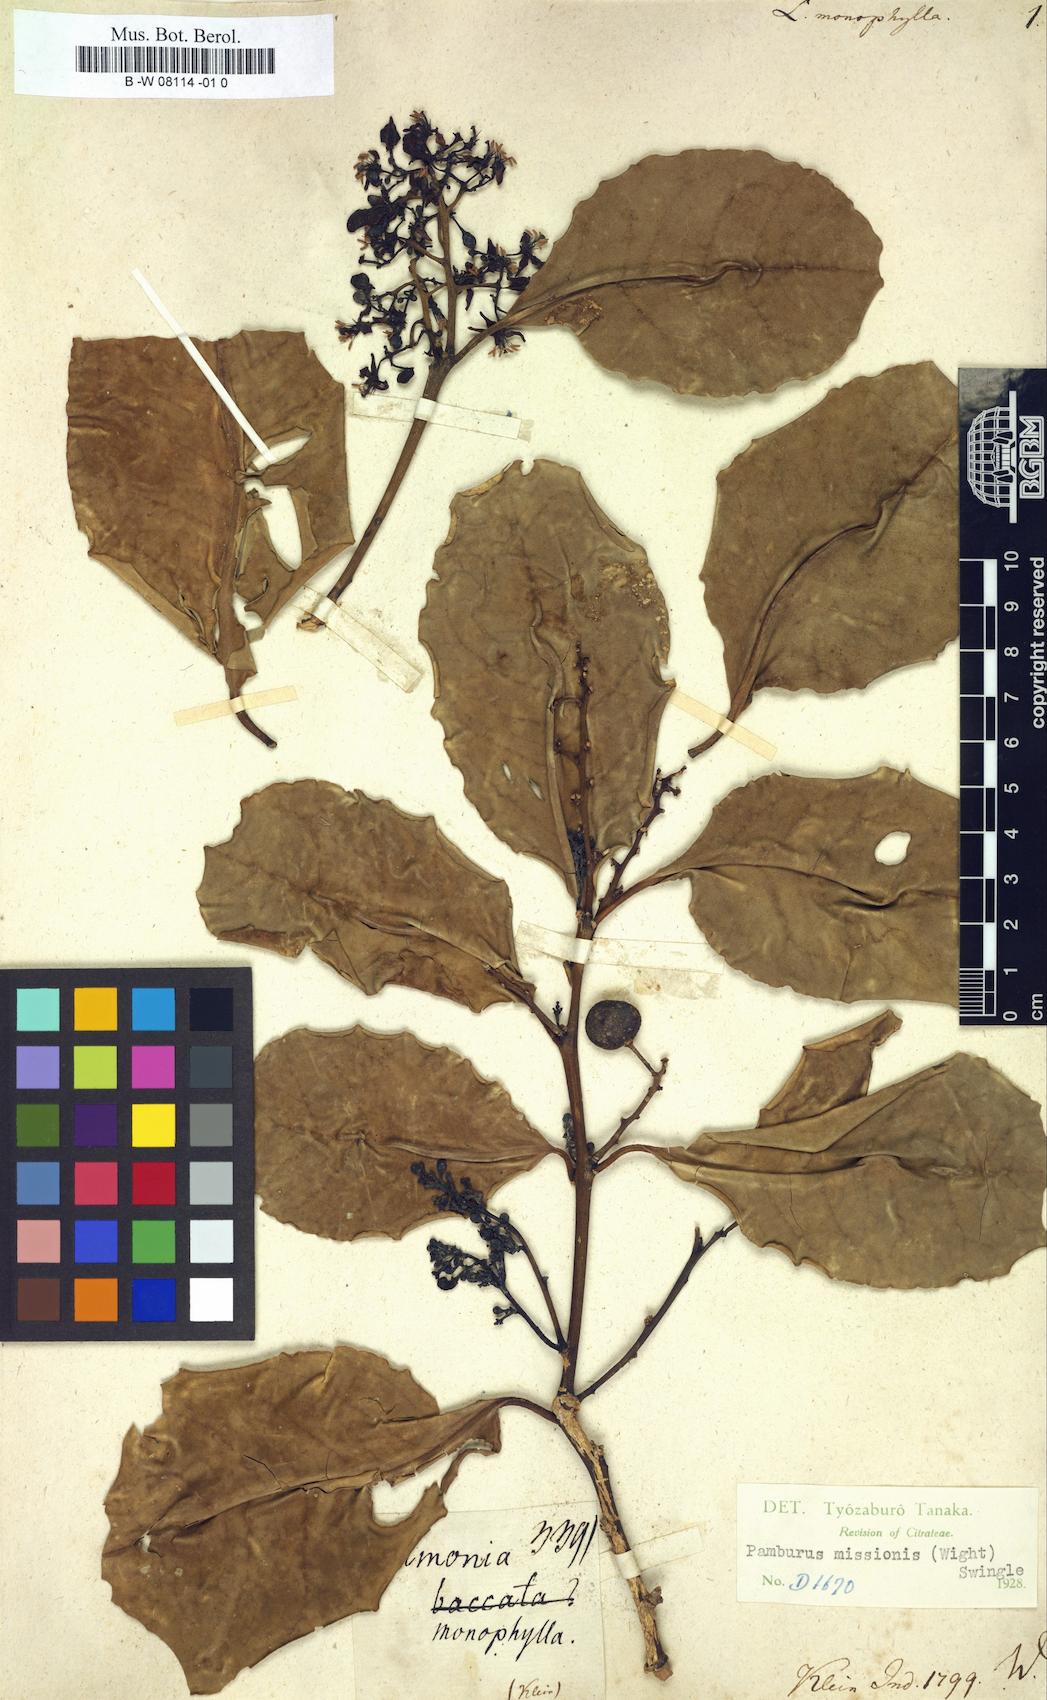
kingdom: Plantae
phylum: Tracheophyta
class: Magnoliopsida
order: Sapindales
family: Rutaceae
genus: Atalantia
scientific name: Atalantia
